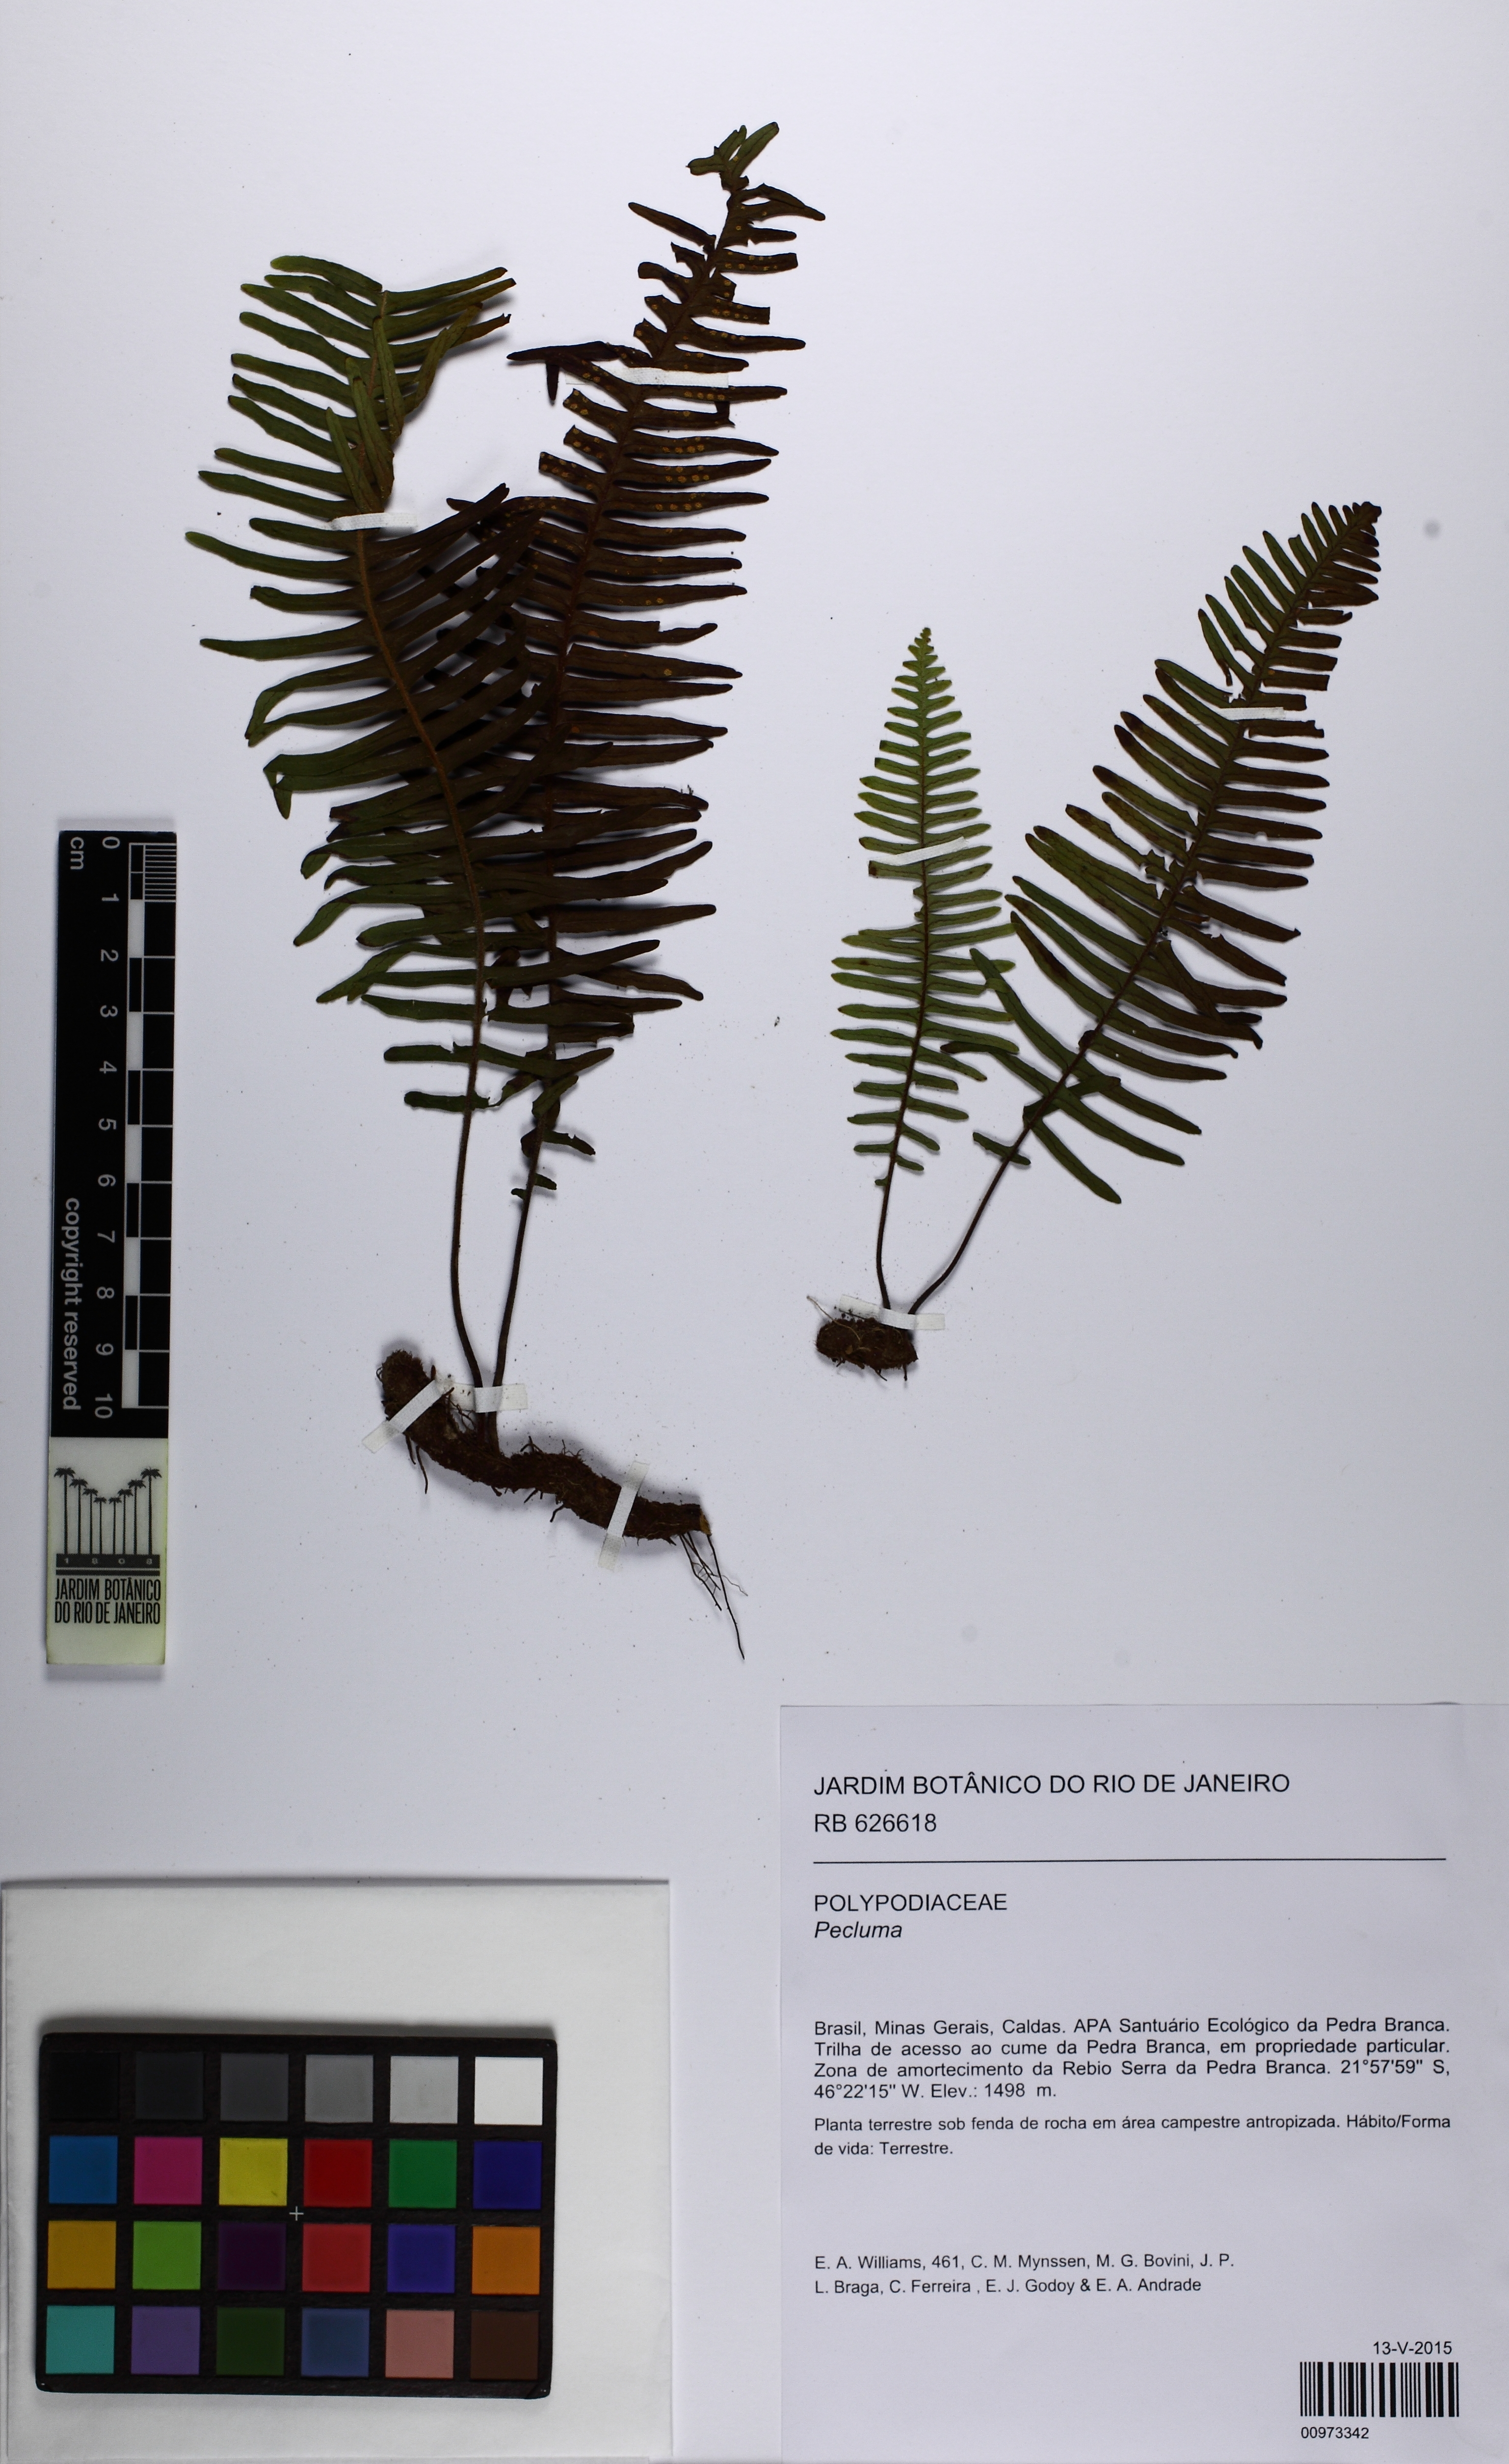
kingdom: Plantae
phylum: Tracheophyta
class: Polypodiopsida
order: Polypodiales
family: Polypodiaceae
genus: Pecluma
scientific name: Pecluma
